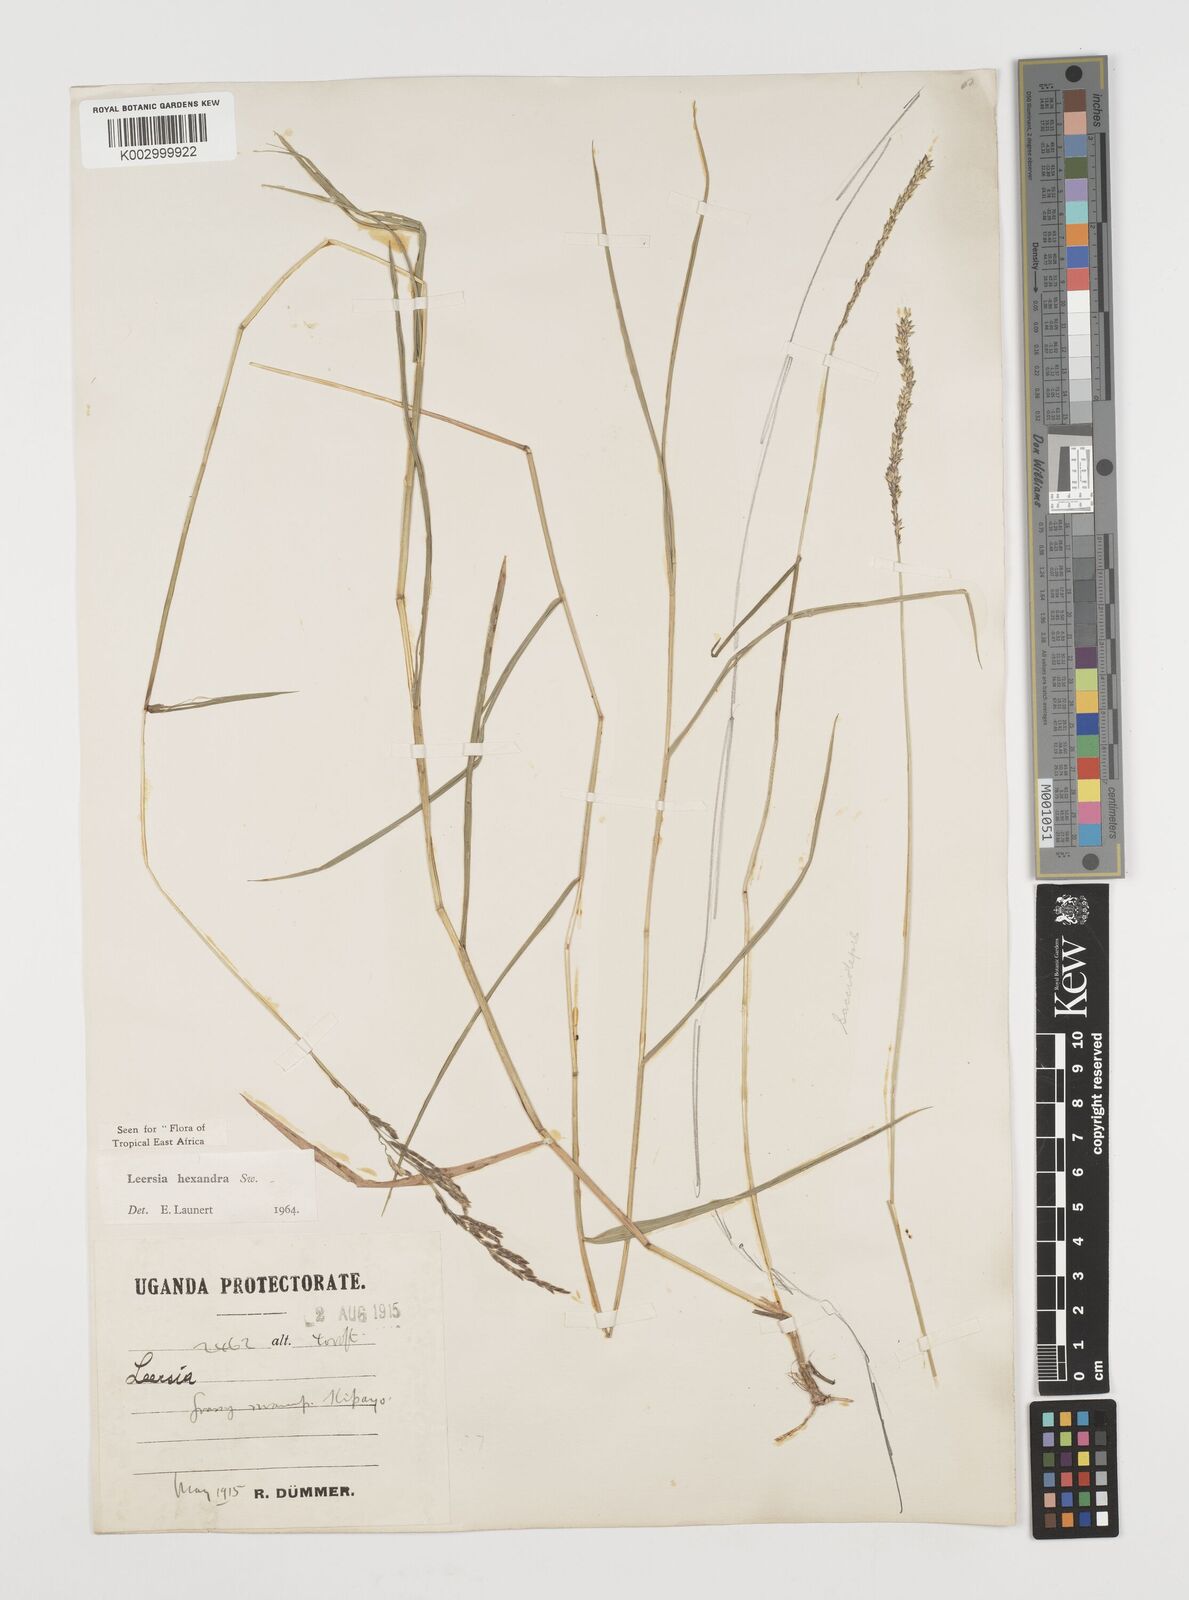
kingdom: Plantae
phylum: Tracheophyta
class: Liliopsida
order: Poales
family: Poaceae
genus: Leersia
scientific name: Leersia hexandra
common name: Southern cut grass
